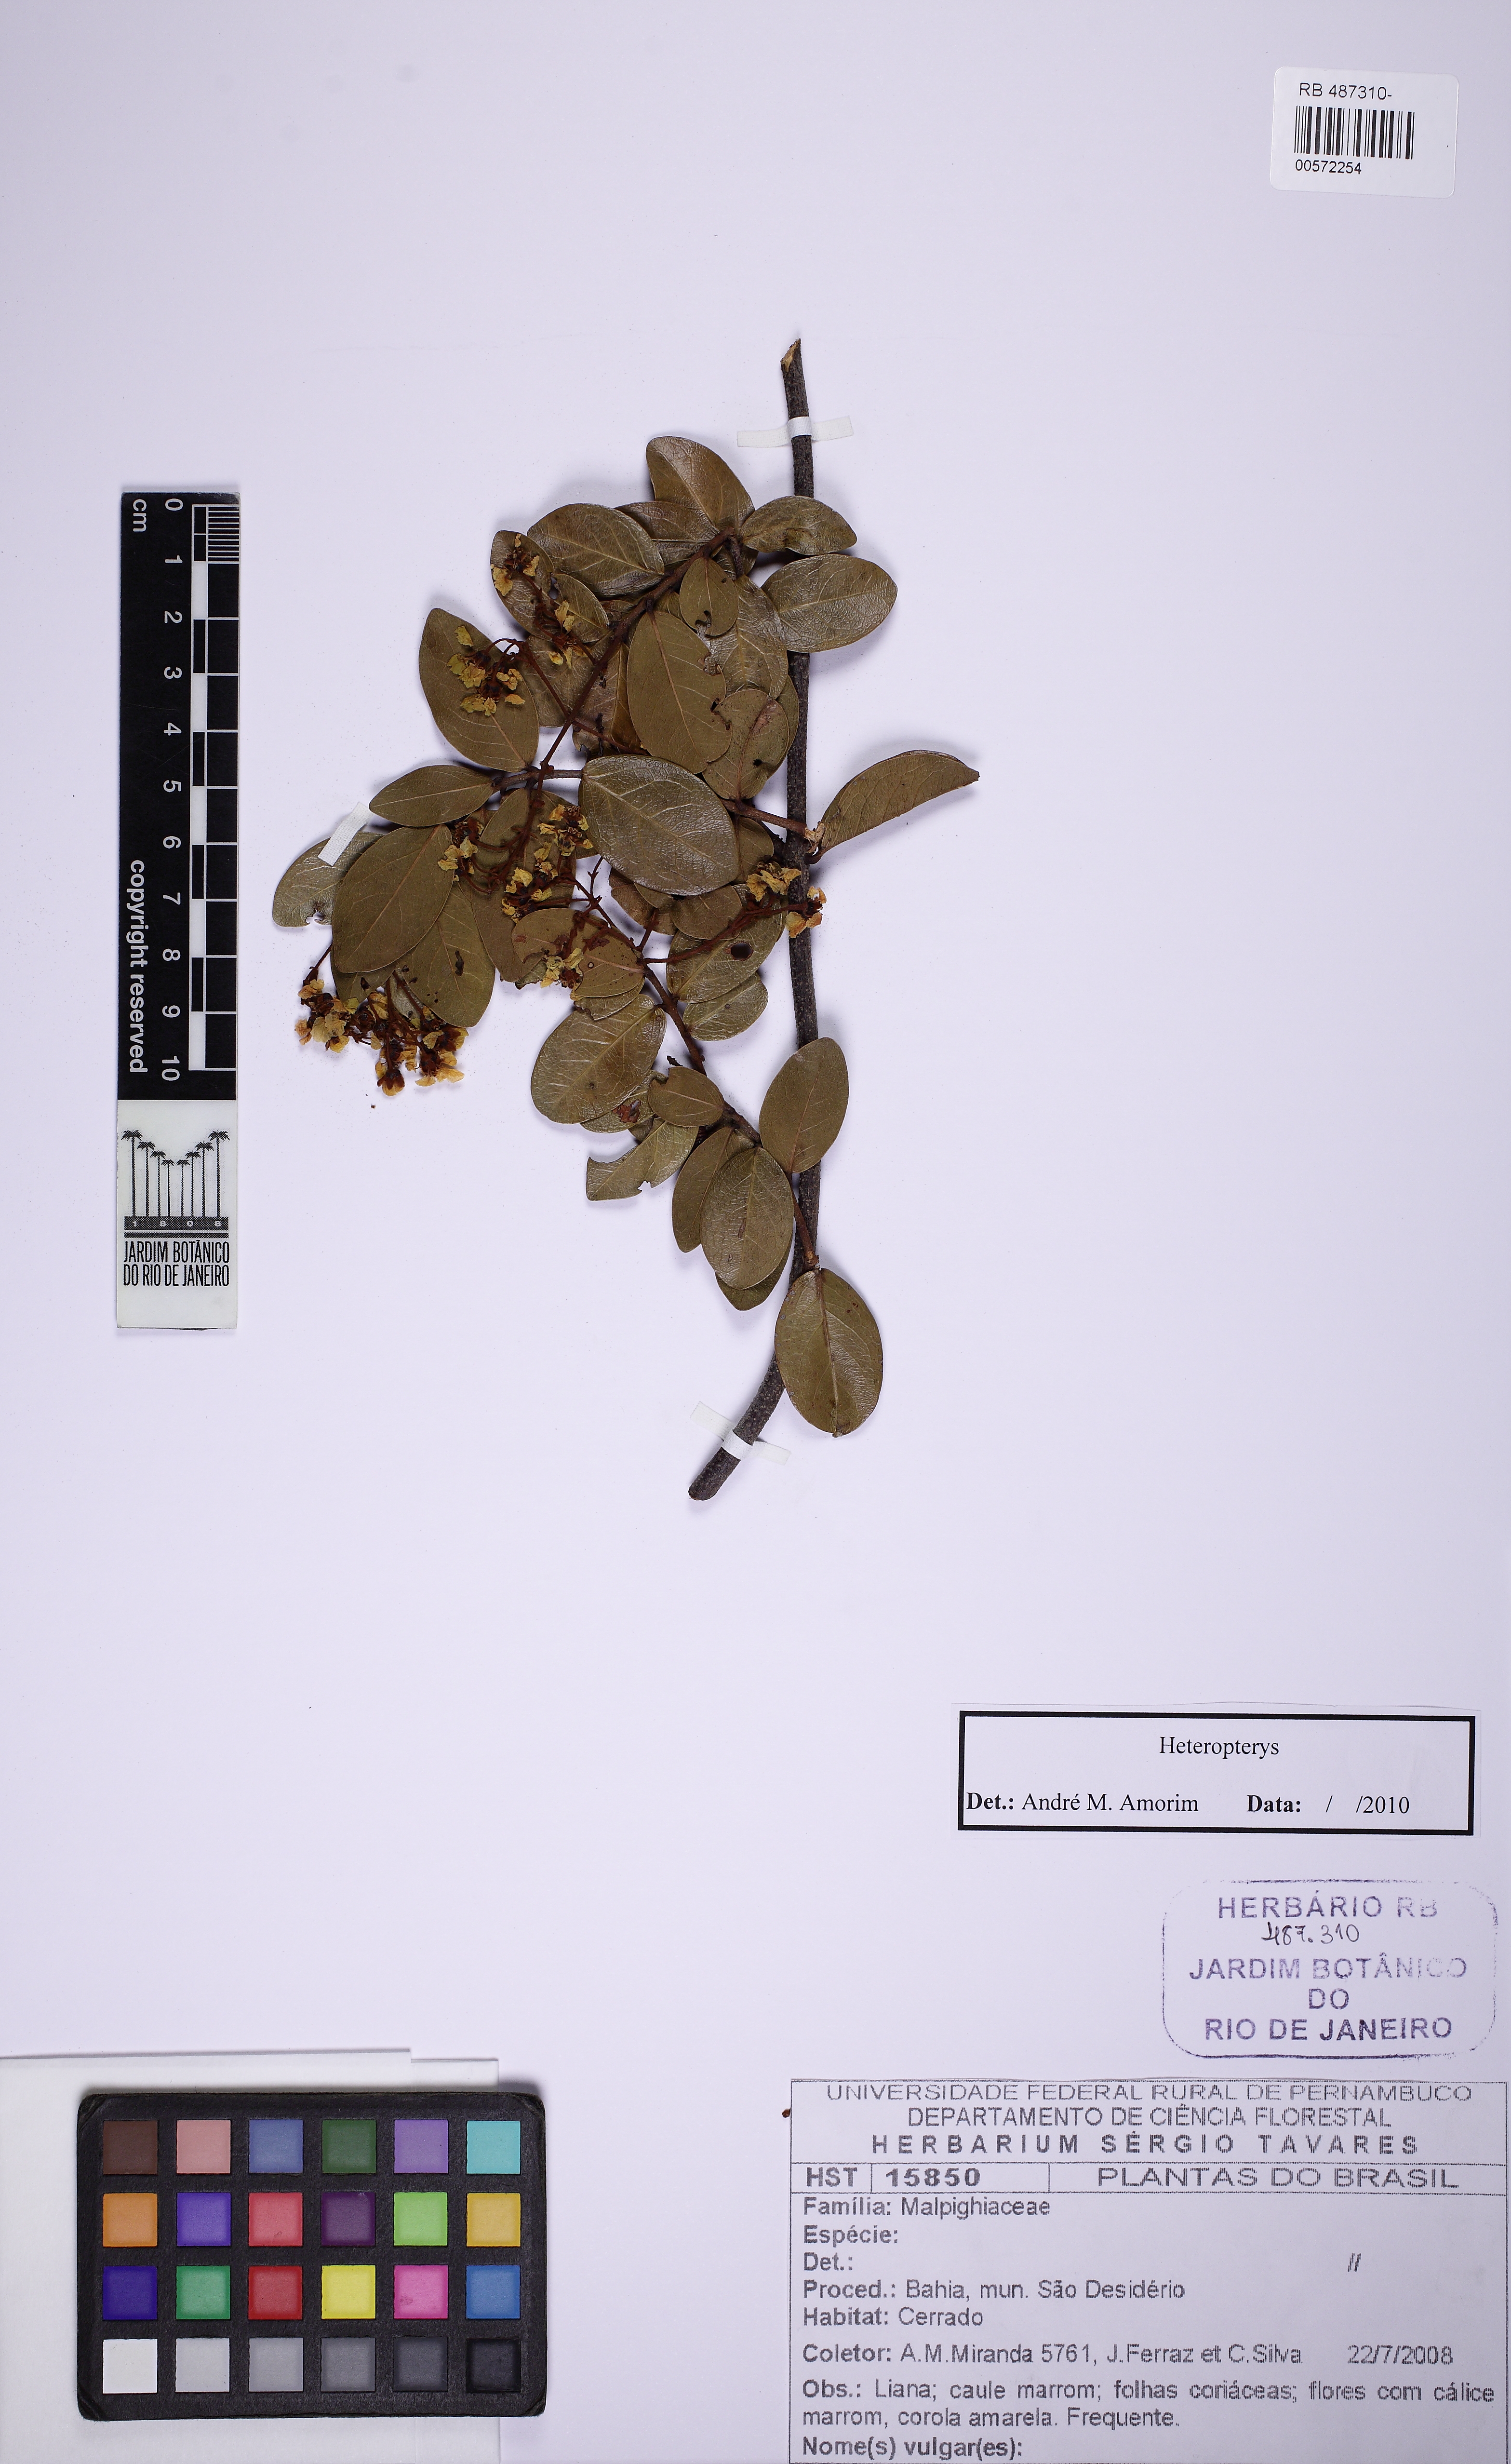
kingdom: Plantae
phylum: Tracheophyta
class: Magnoliopsida
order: Malpighiales
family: Malpighiaceae
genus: Heteropterys
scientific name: Heteropterys
